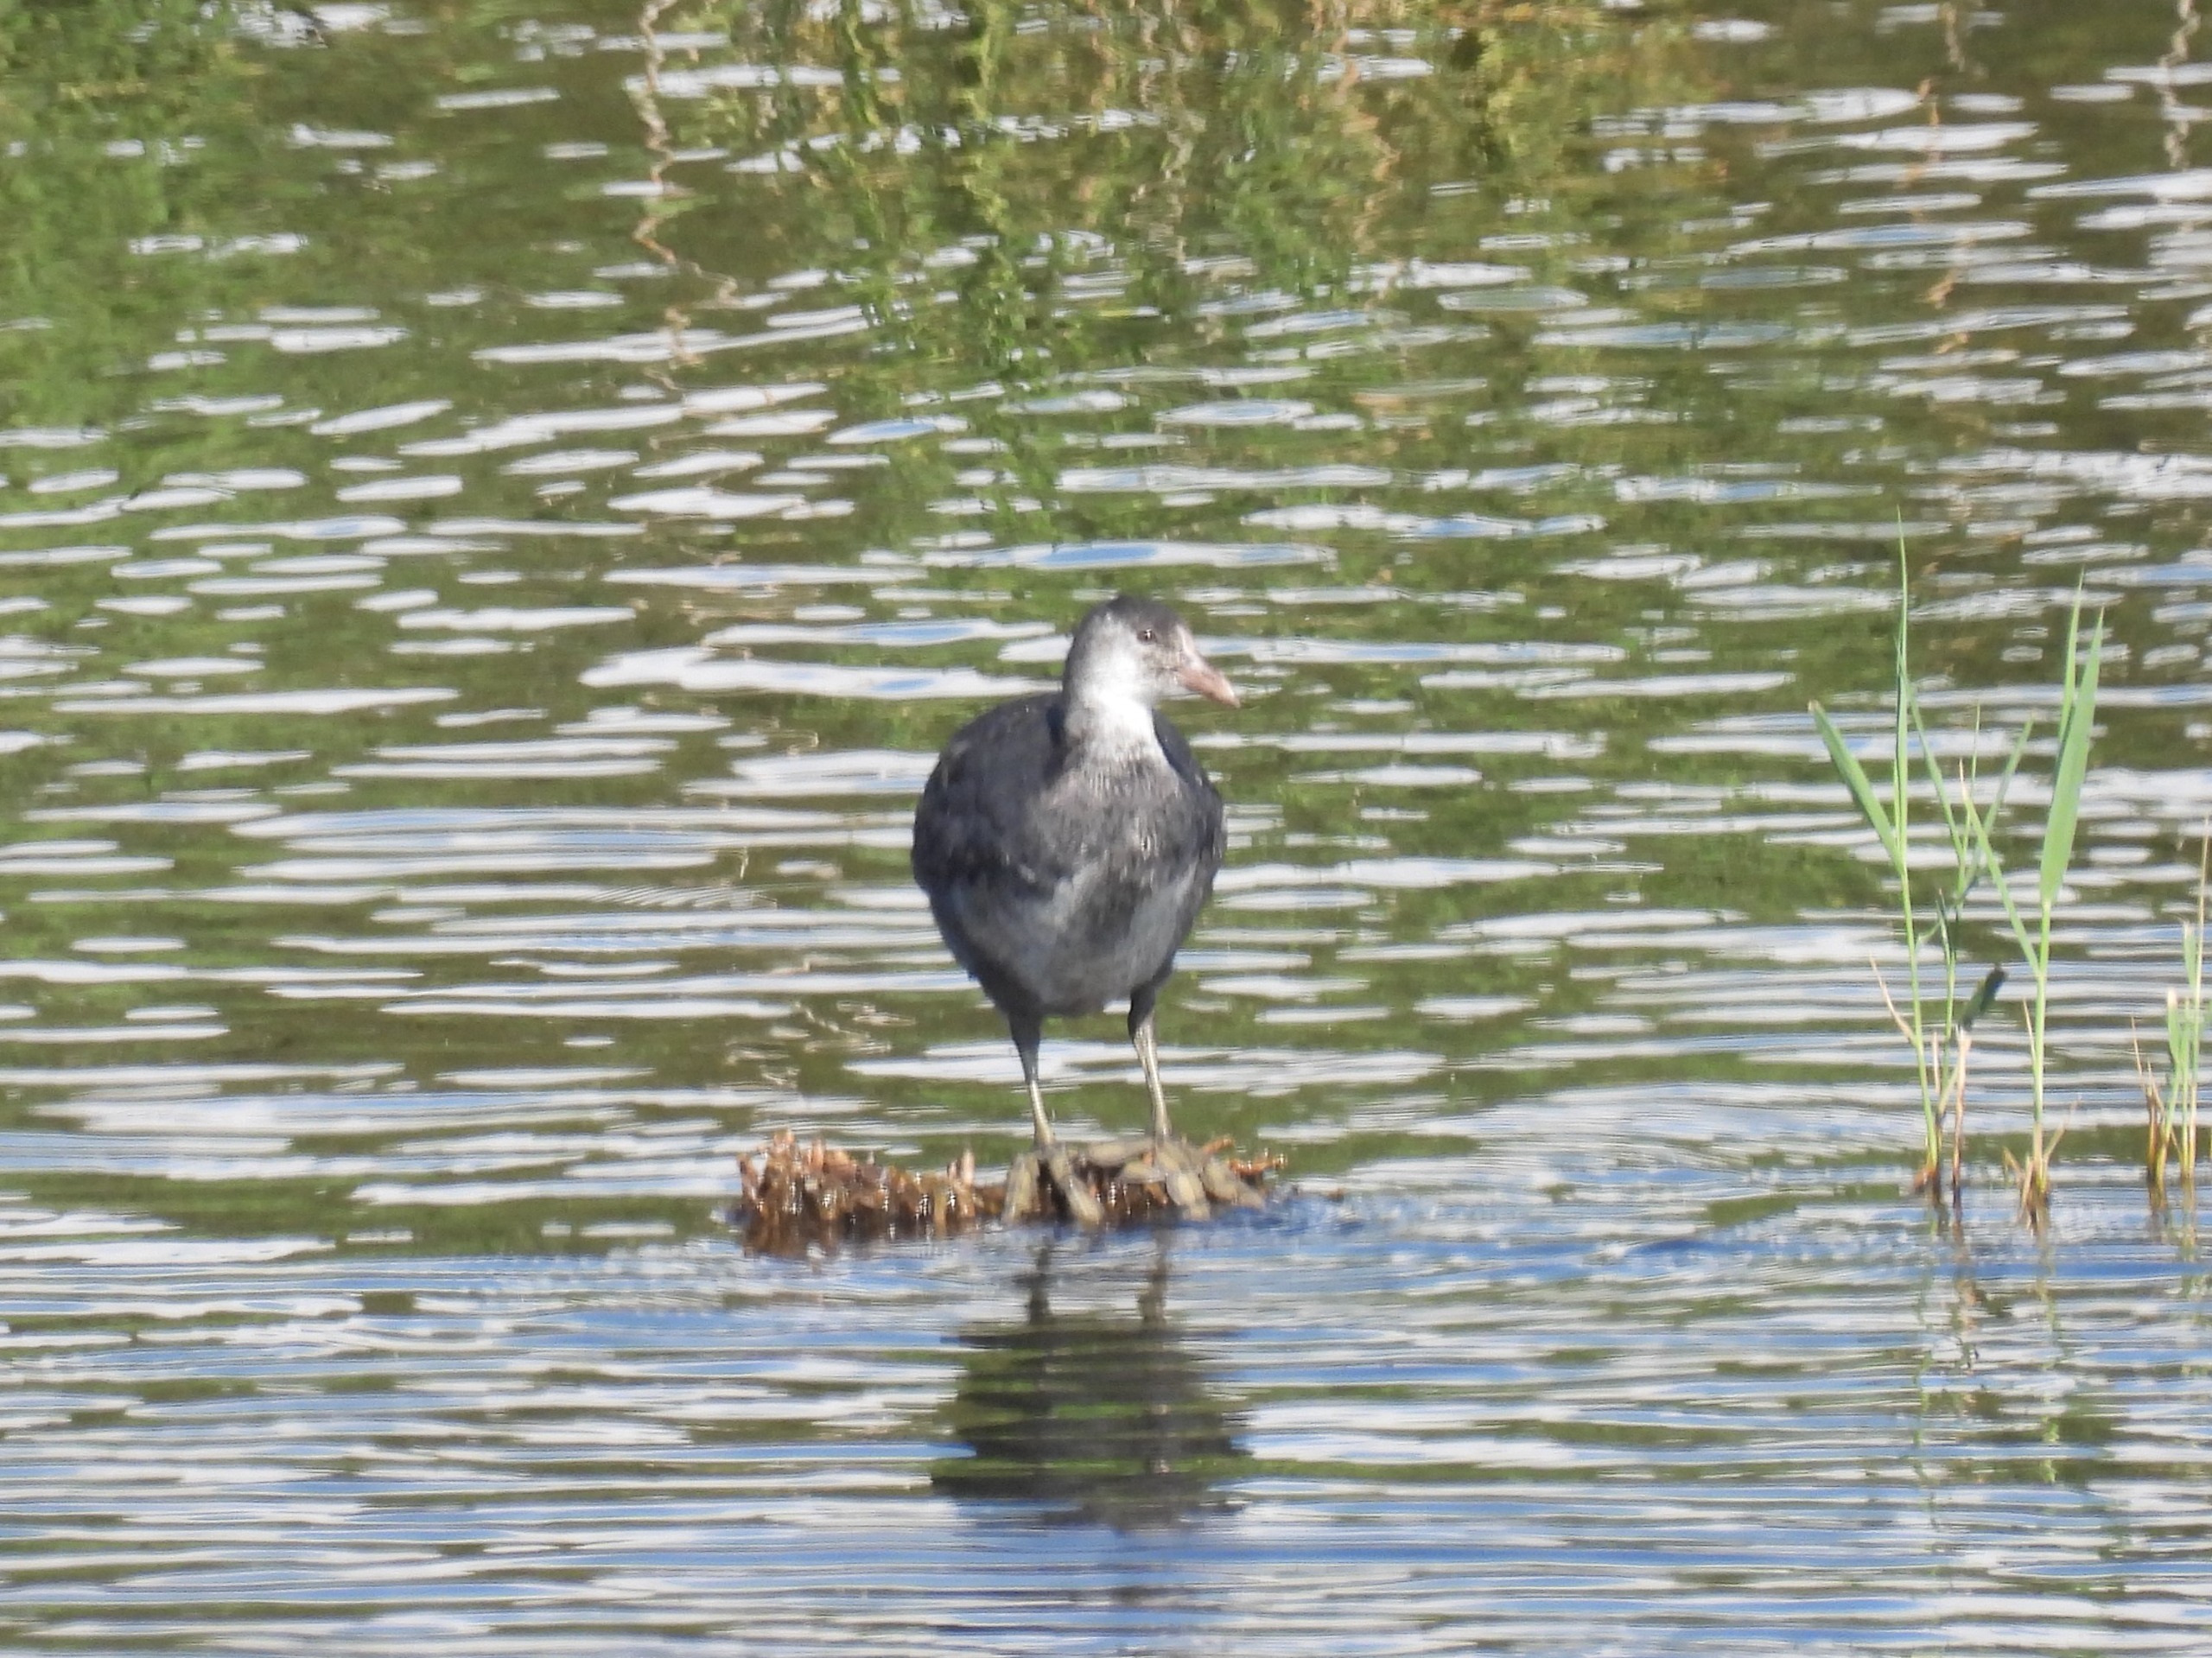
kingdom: Animalia
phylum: Chordata
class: Aves
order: Gruiformes
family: Rallidae
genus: Fulica
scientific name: Fulica atra
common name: Blishøne
